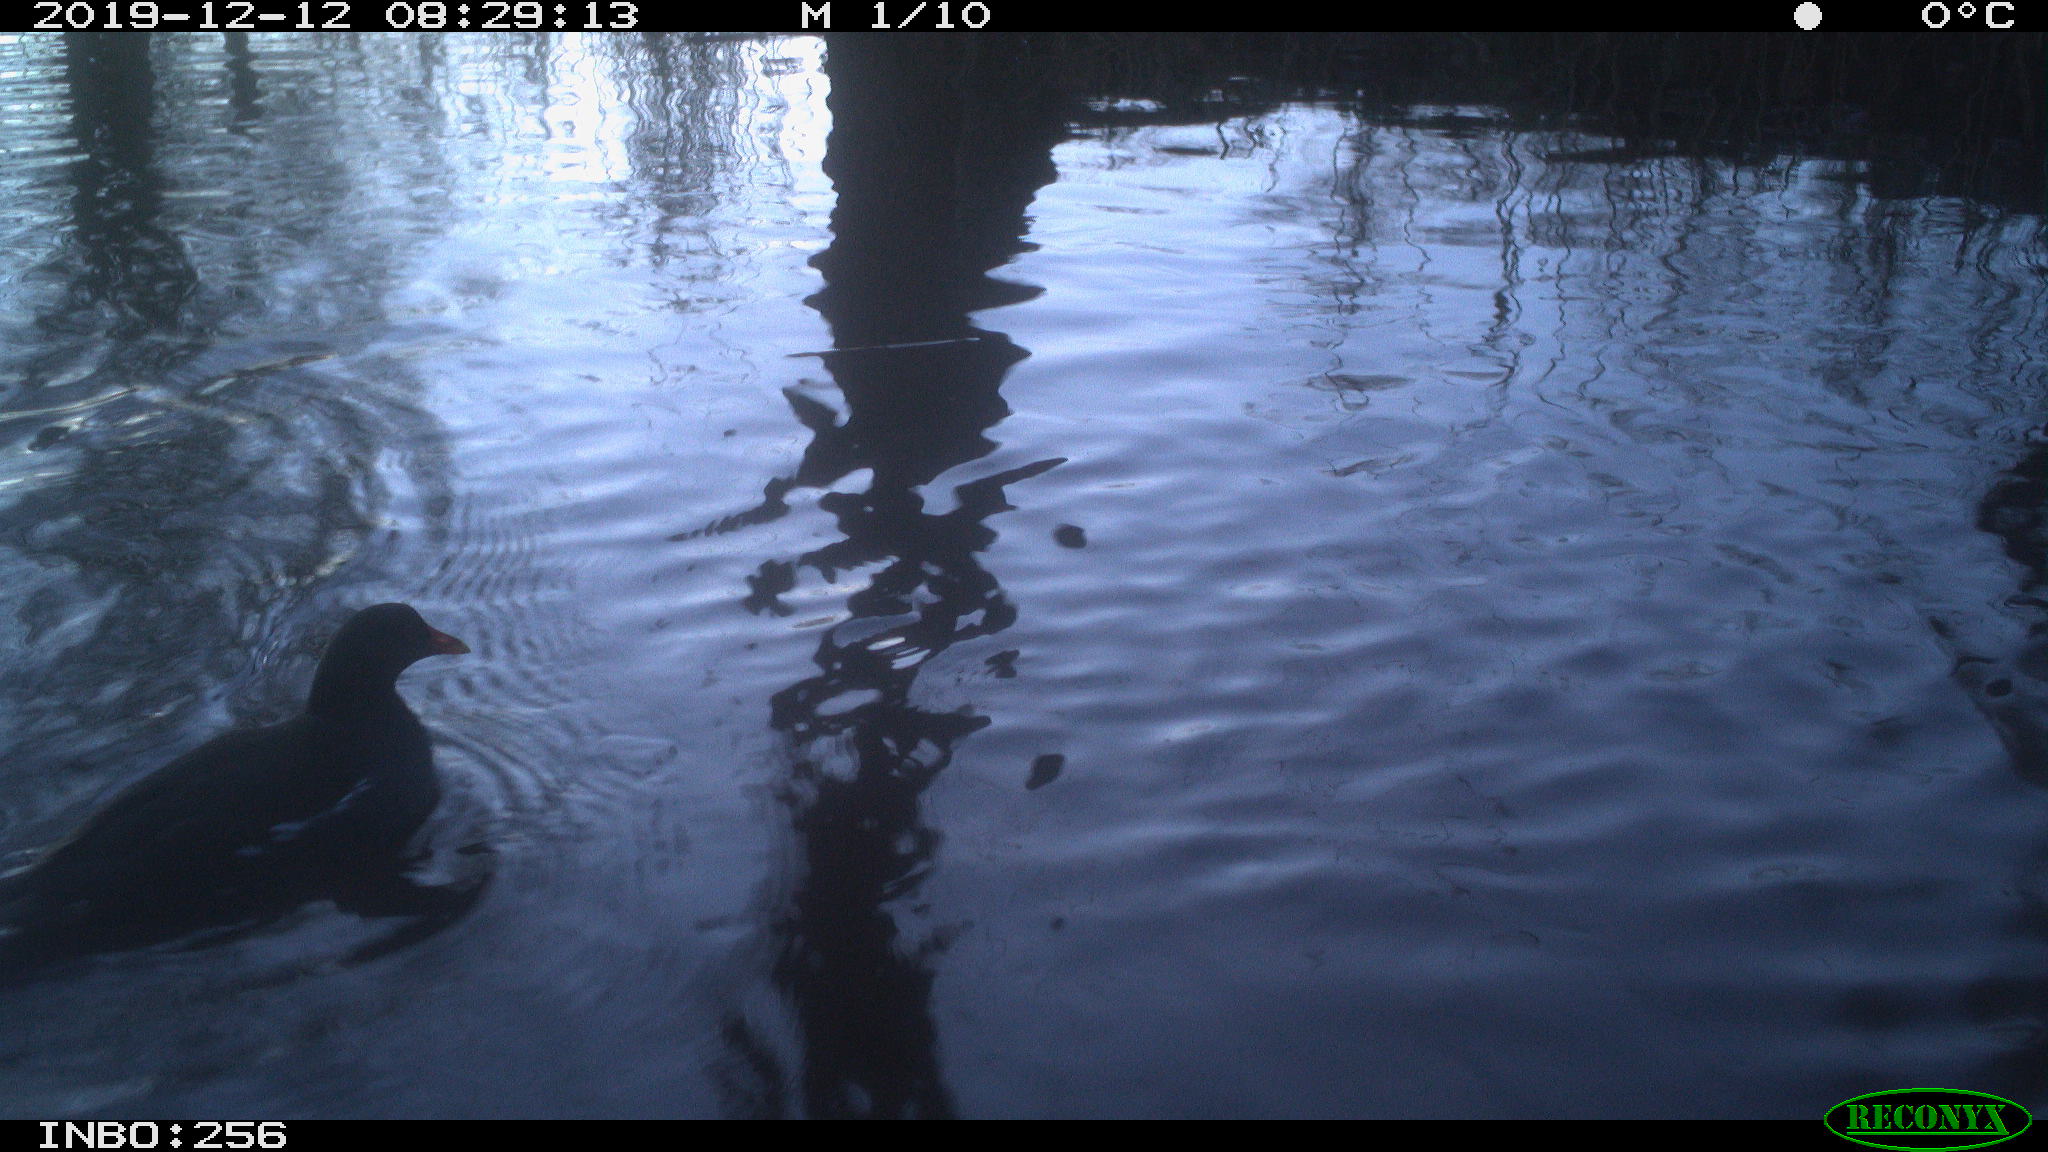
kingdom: Animalia
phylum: Chordata
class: Aves
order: Gruiformes
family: Rallidae
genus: Gallinula
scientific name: Gallinula chloropus
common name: Common moorhen
